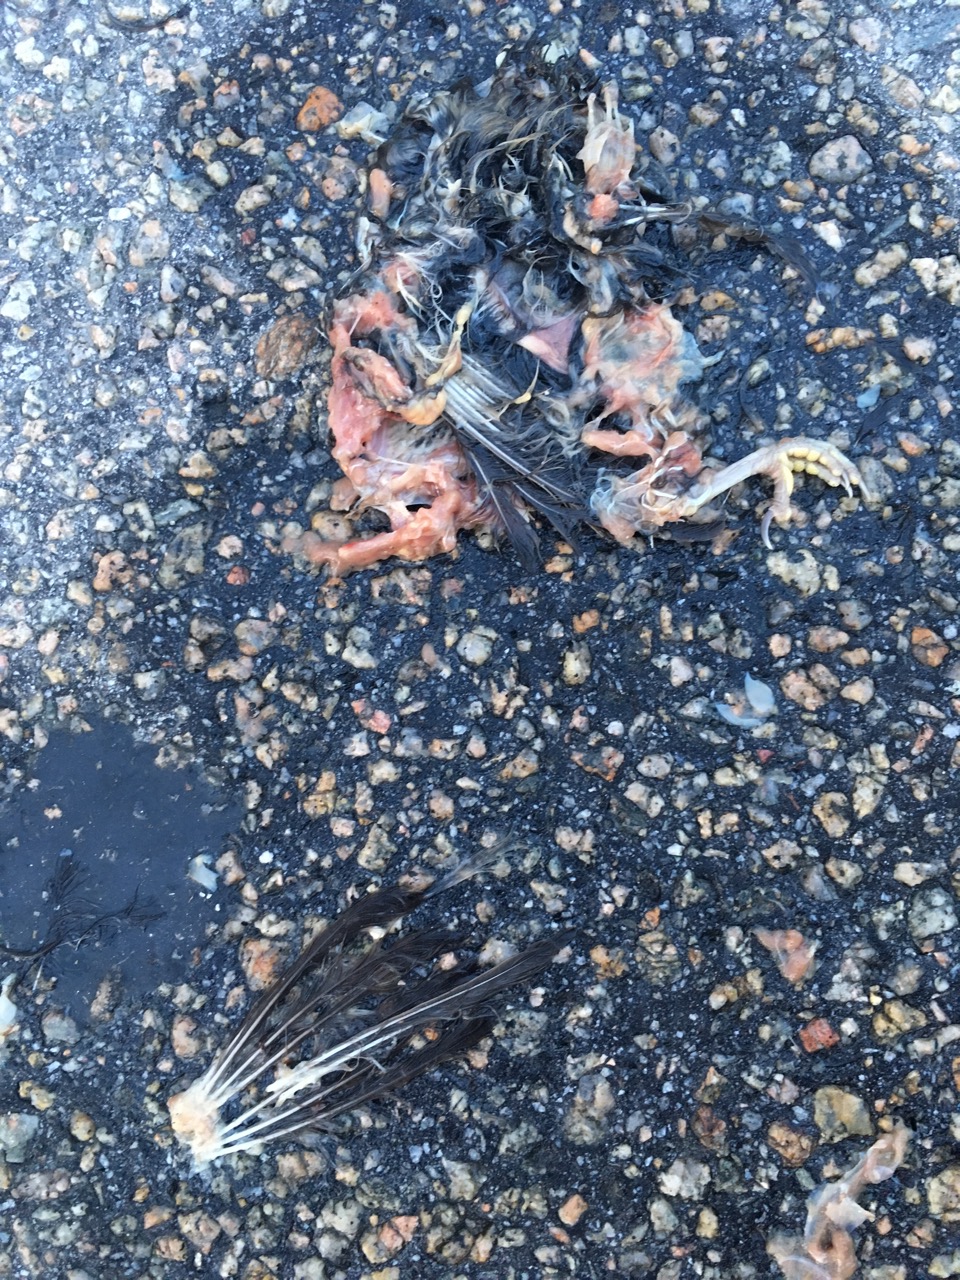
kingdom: Animalia
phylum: Chordata
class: Mammalia
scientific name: Mammalia
